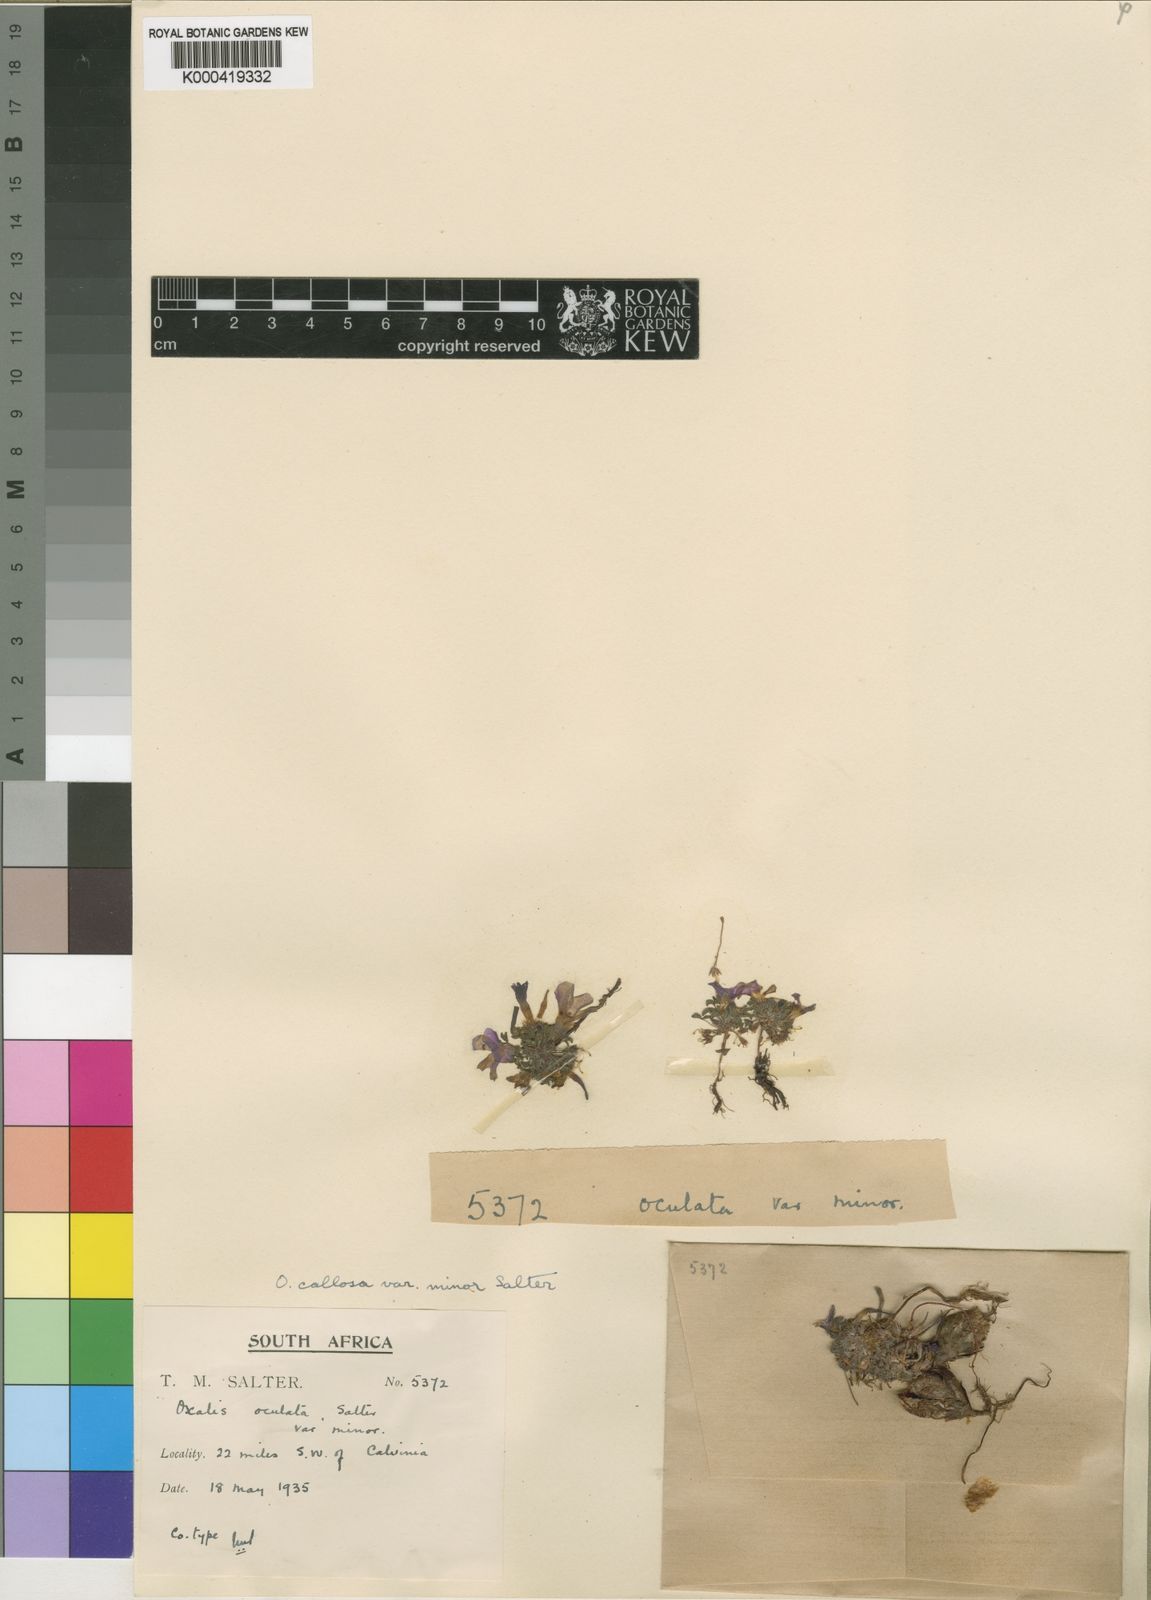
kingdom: Plantae
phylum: Tracheophyta
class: Magnoliopsida
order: Oxalidales
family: Oxalidaceae
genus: Oxalis
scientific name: Oxalis callosa
